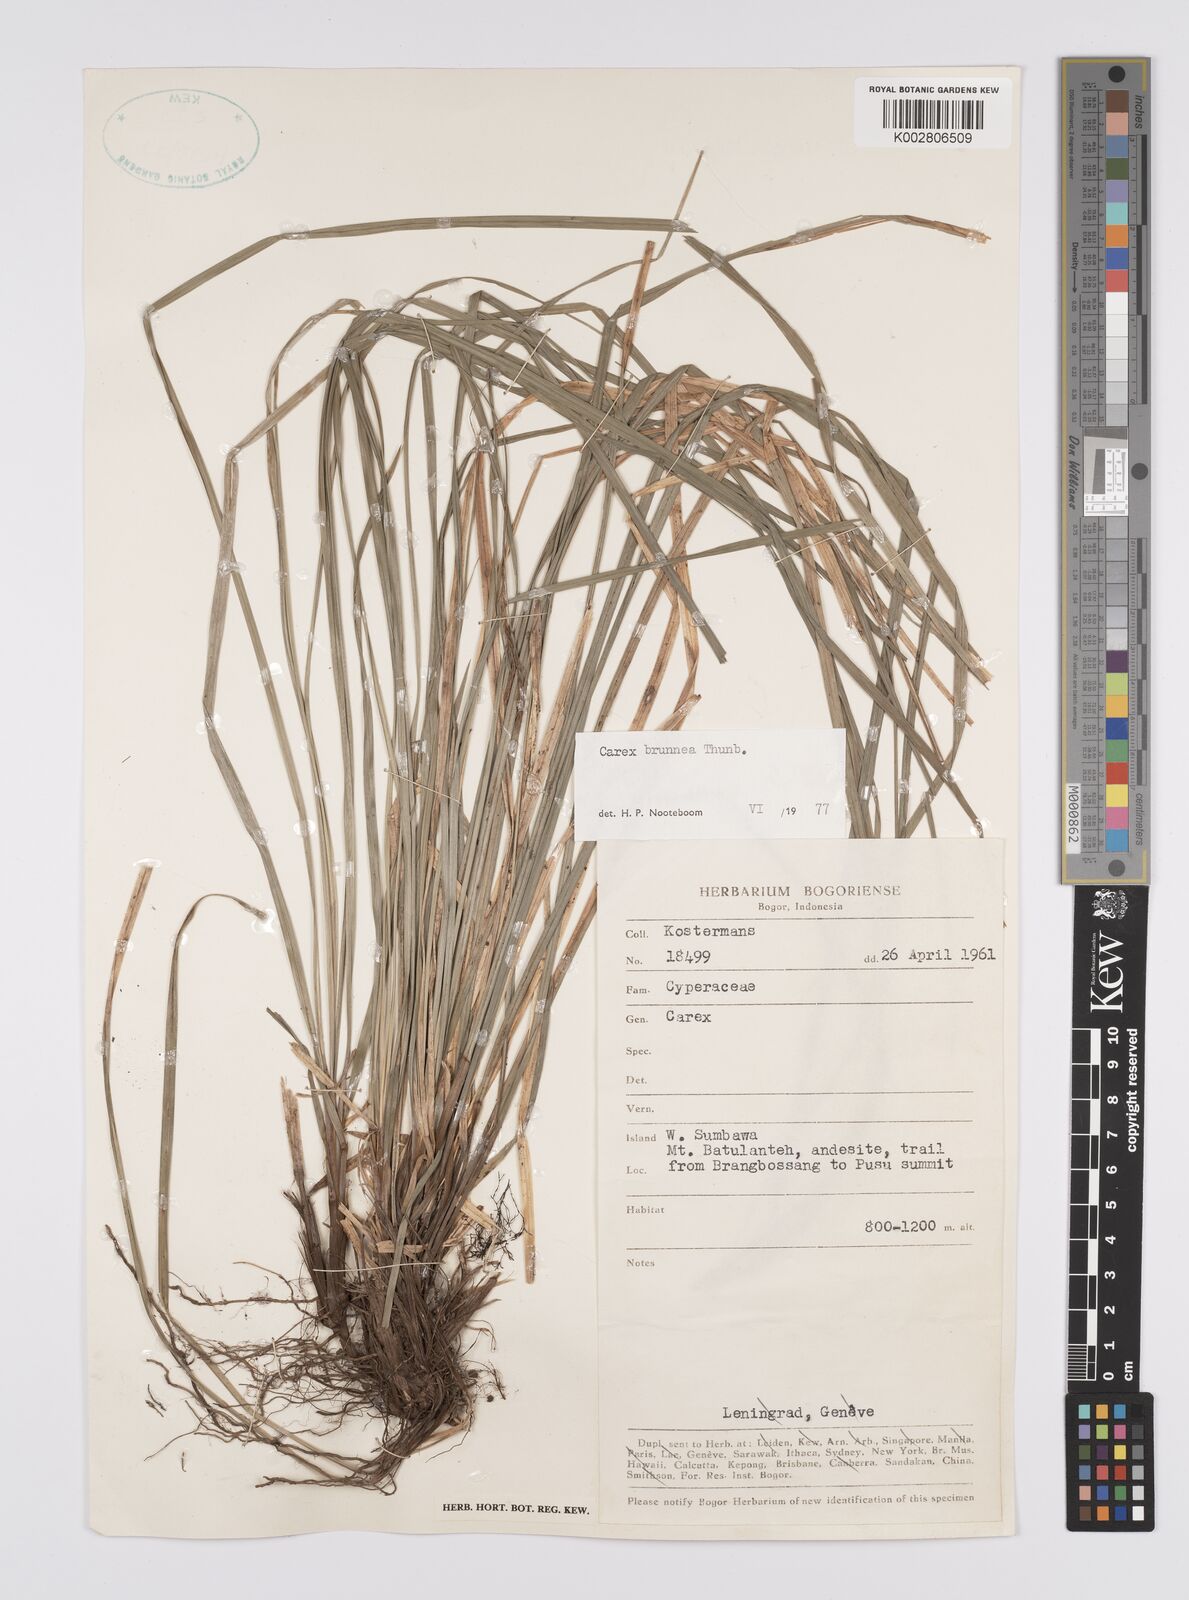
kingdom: Plantae
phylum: Tracheophyta
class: Liliopsida
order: Poales
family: Cyperaceae
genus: Carex
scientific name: Carex brunnea
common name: Greater brown sedge
